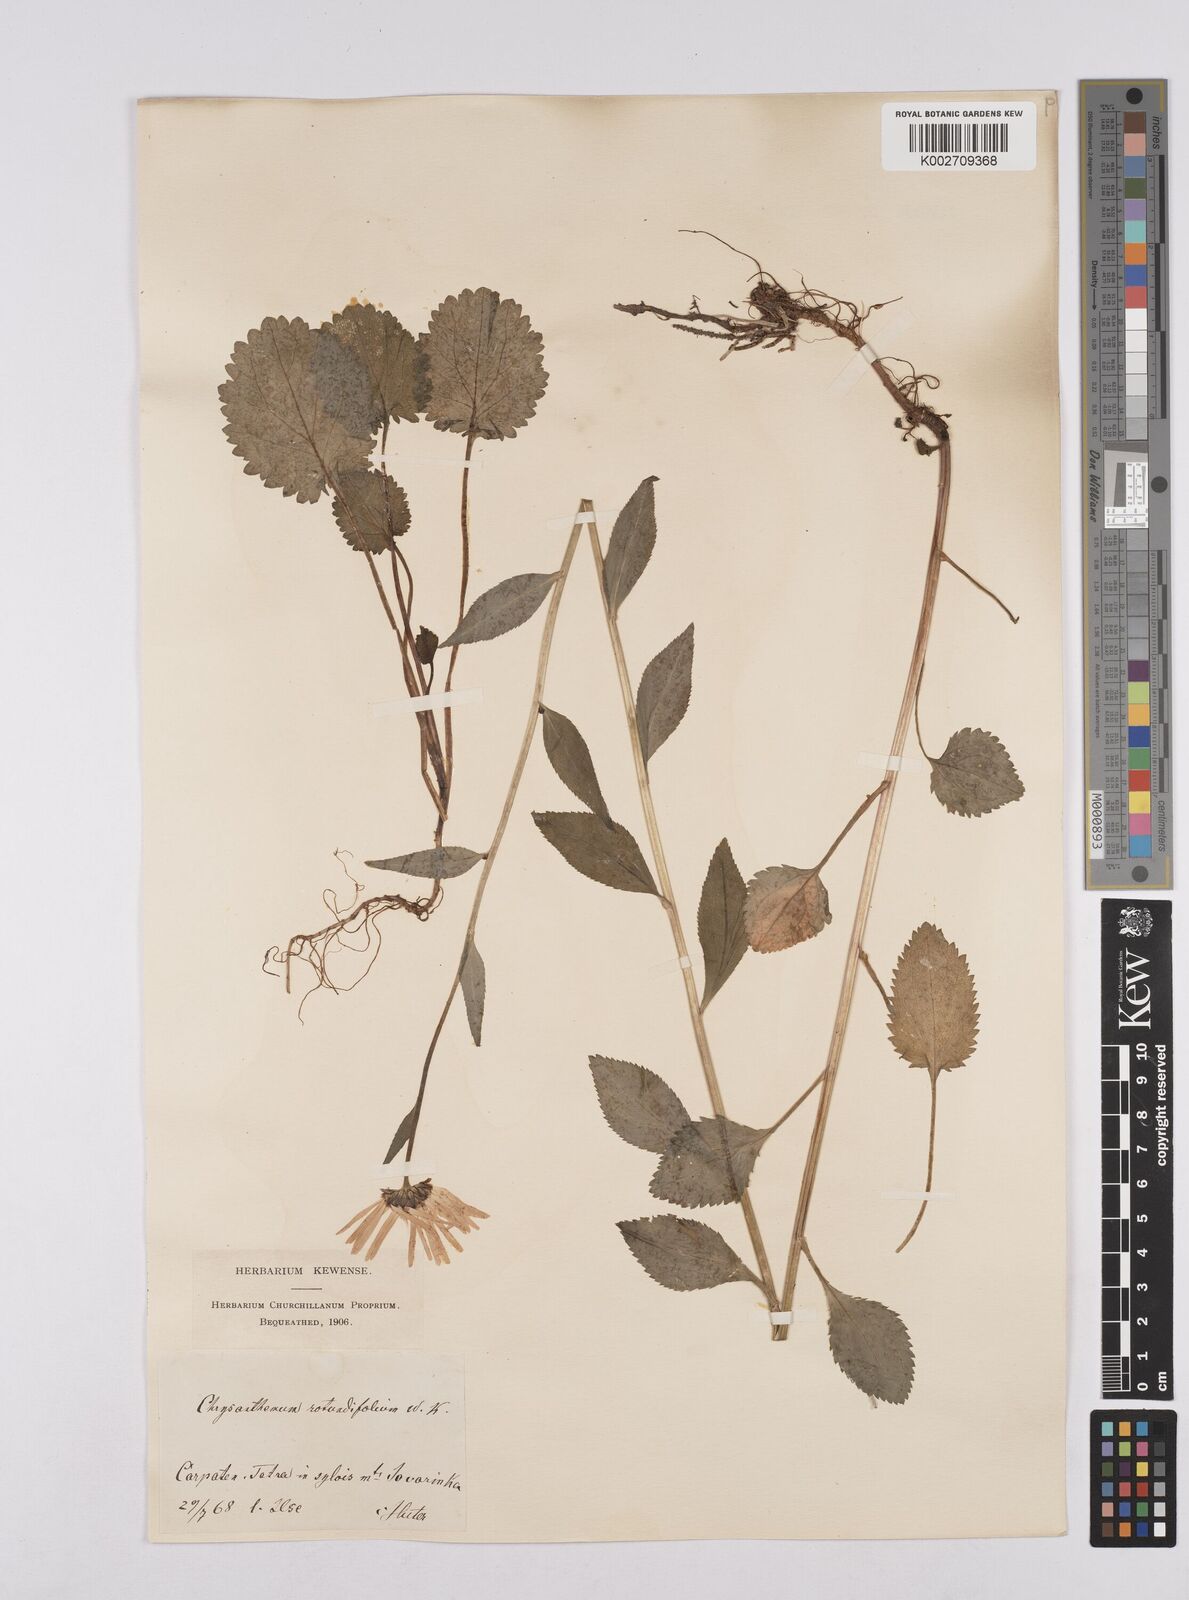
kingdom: Plantae
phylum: Tracheophyta
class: Magnoliopsida
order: Asterales
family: Asteraceae
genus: Leucanthemum
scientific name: Leucanthemum rotundifolium
